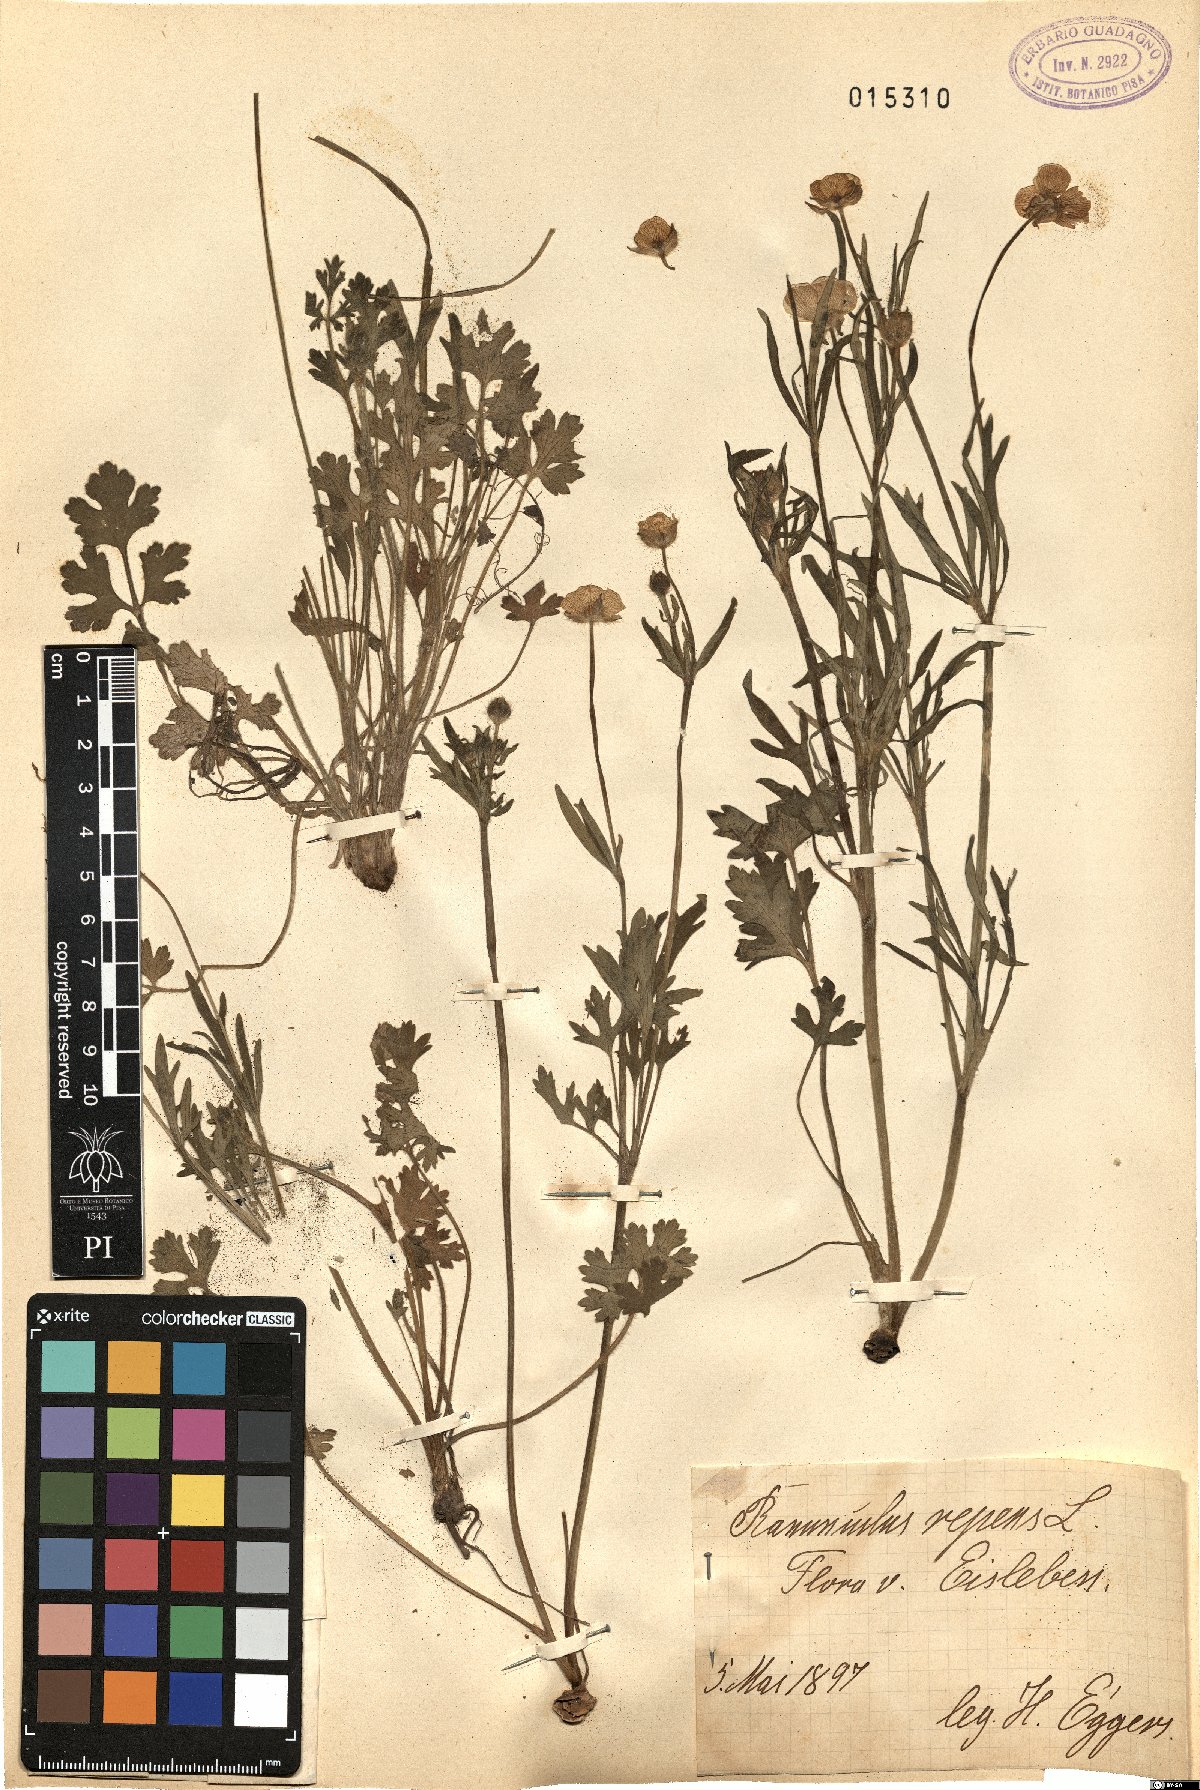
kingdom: Plantae
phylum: Tracheophyta
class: Magnoliopsida
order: Ranunculales
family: Ranunculaceae
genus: Ranunculus
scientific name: Ranunculus repens
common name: Creeping buttercup
